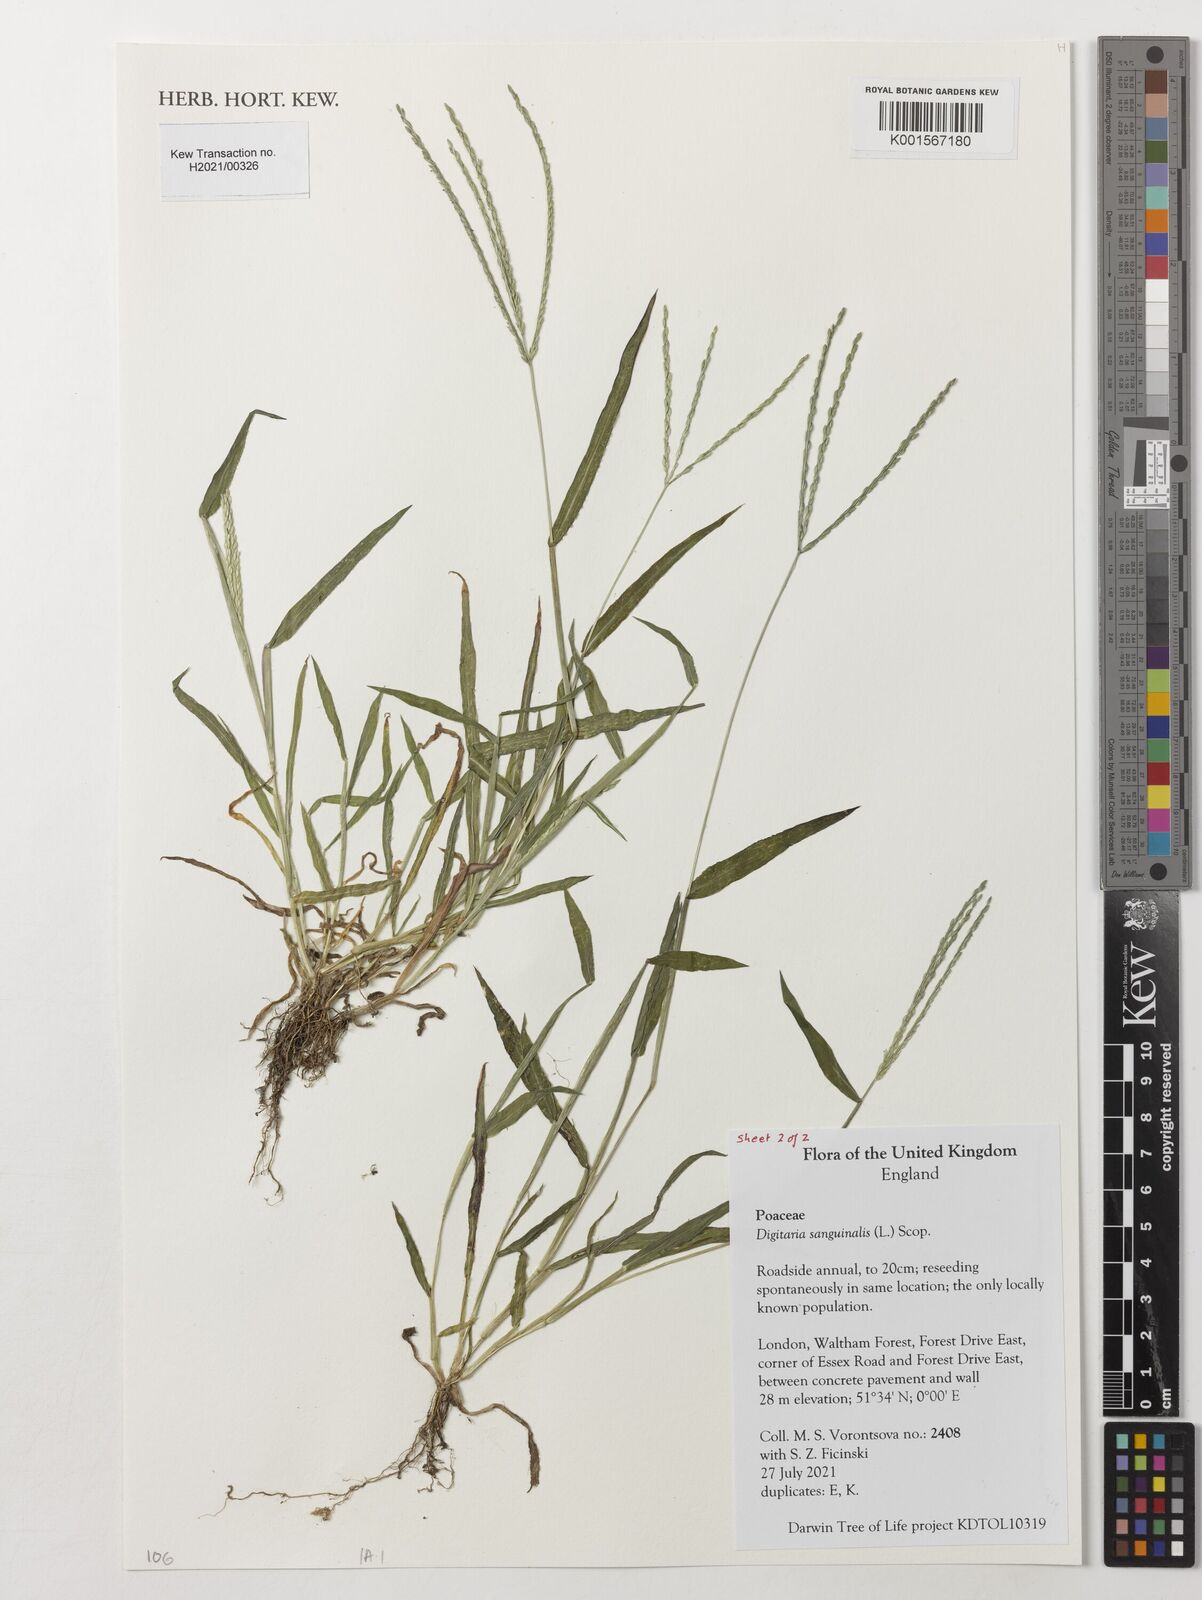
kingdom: Plantae
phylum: Tracheophyta
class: Liliopsida
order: Poales
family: Poaceae
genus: Digitaria
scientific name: Digitaria sanguinalis
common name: Hairy crabgrass
